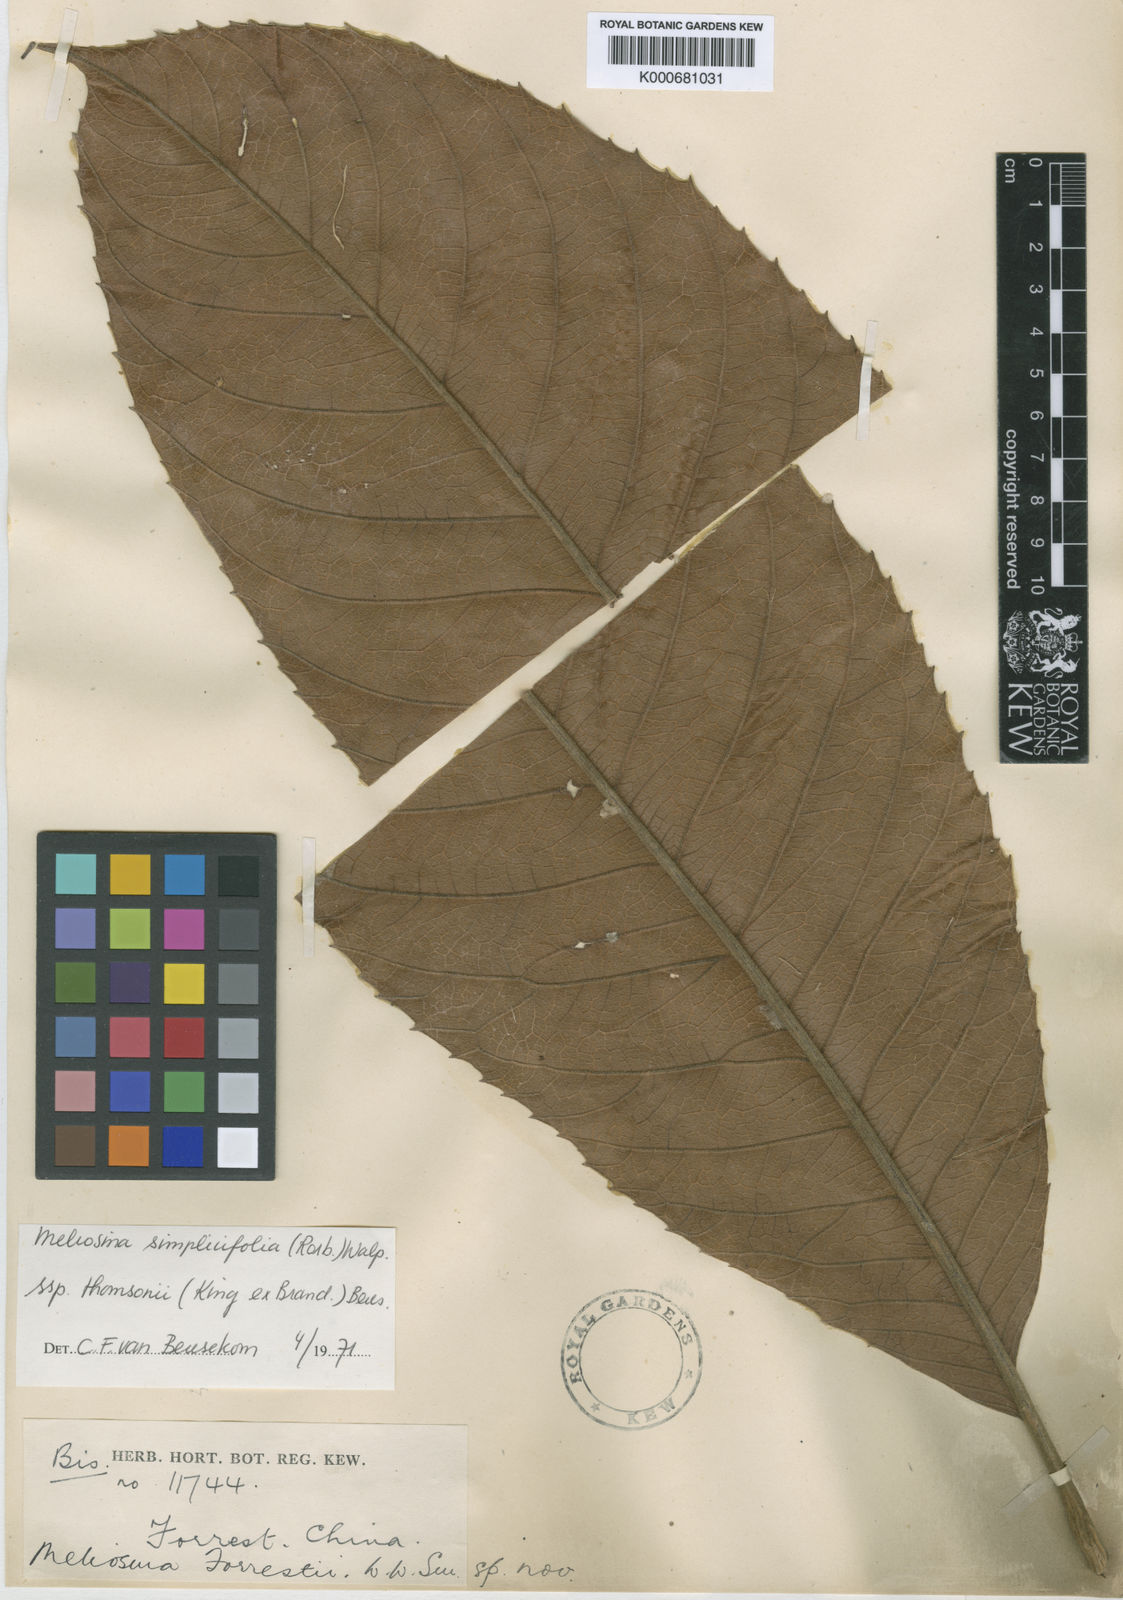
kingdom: Plantae
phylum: Tracheophyta
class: Magnoliopsida
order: Proteales
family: Sabiaceae
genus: Meliosma
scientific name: Meliosma thomsonii
